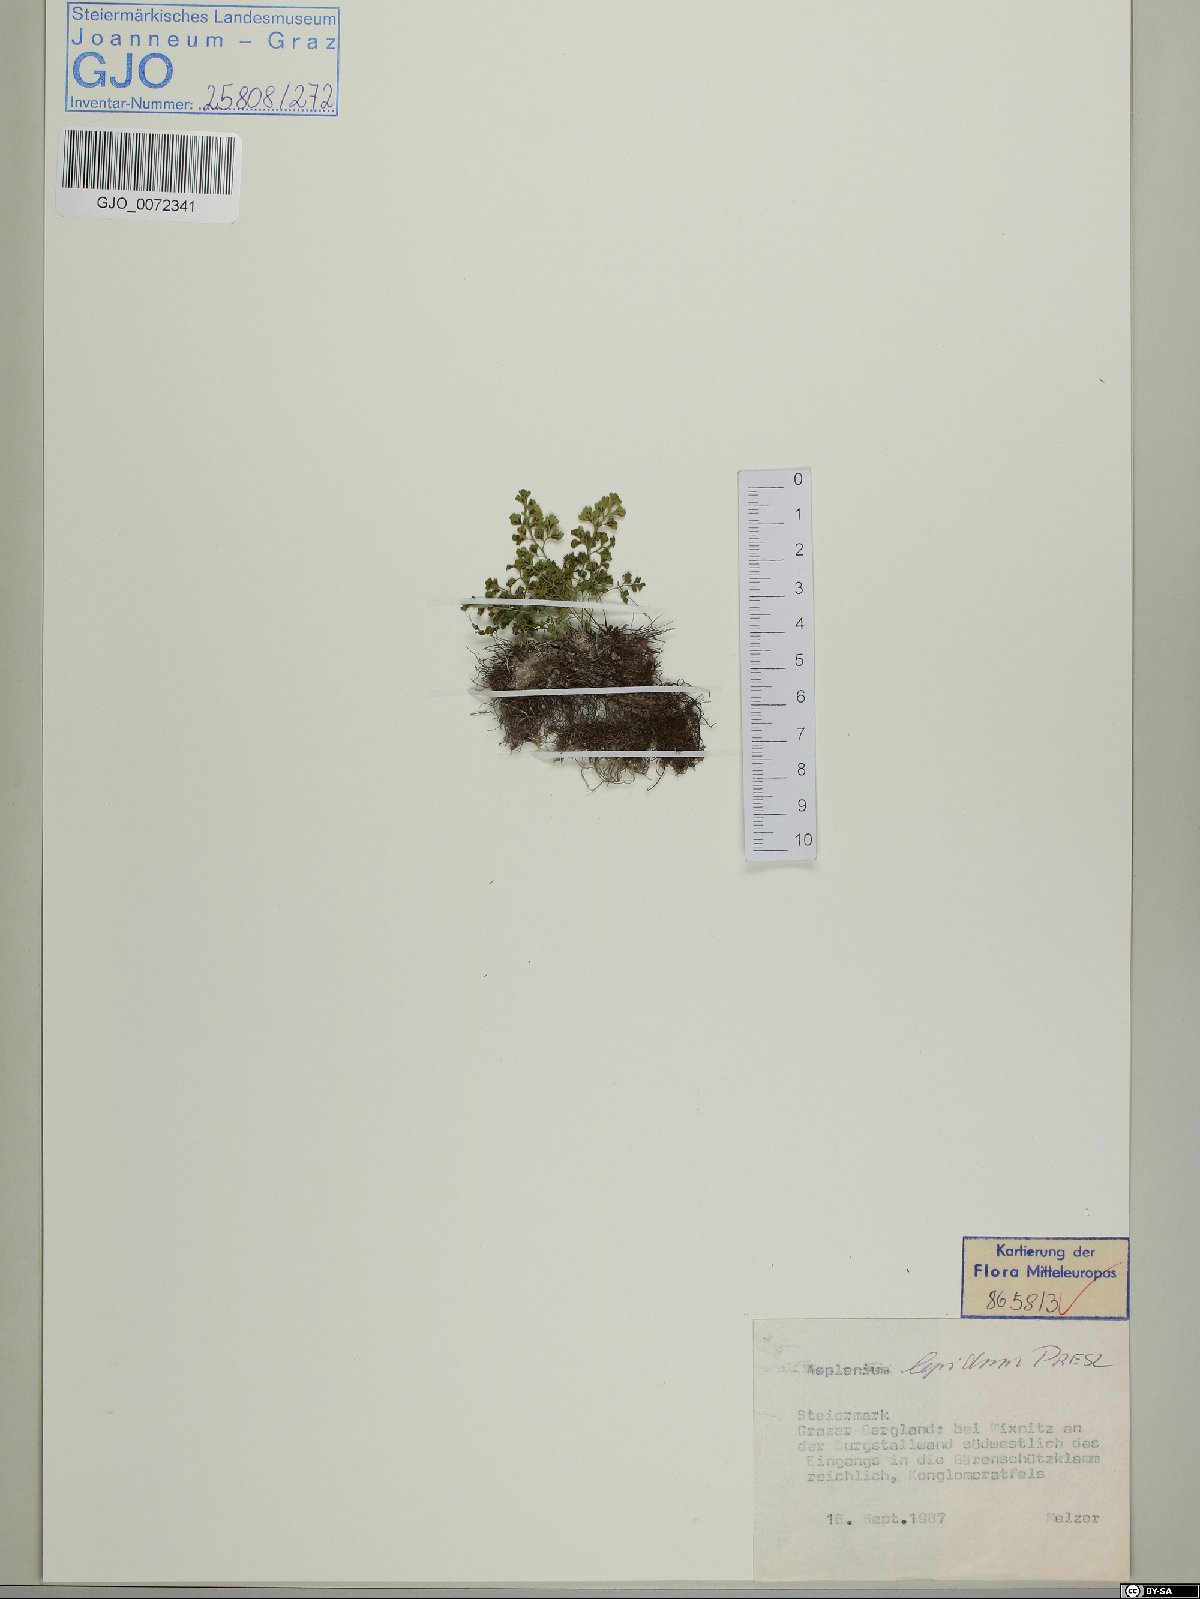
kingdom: Plantae
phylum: Tracheophyta
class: Polypodiopsida
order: Polypodiales
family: Aspleniaceae
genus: Asplenium
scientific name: Asplenium lepidum
